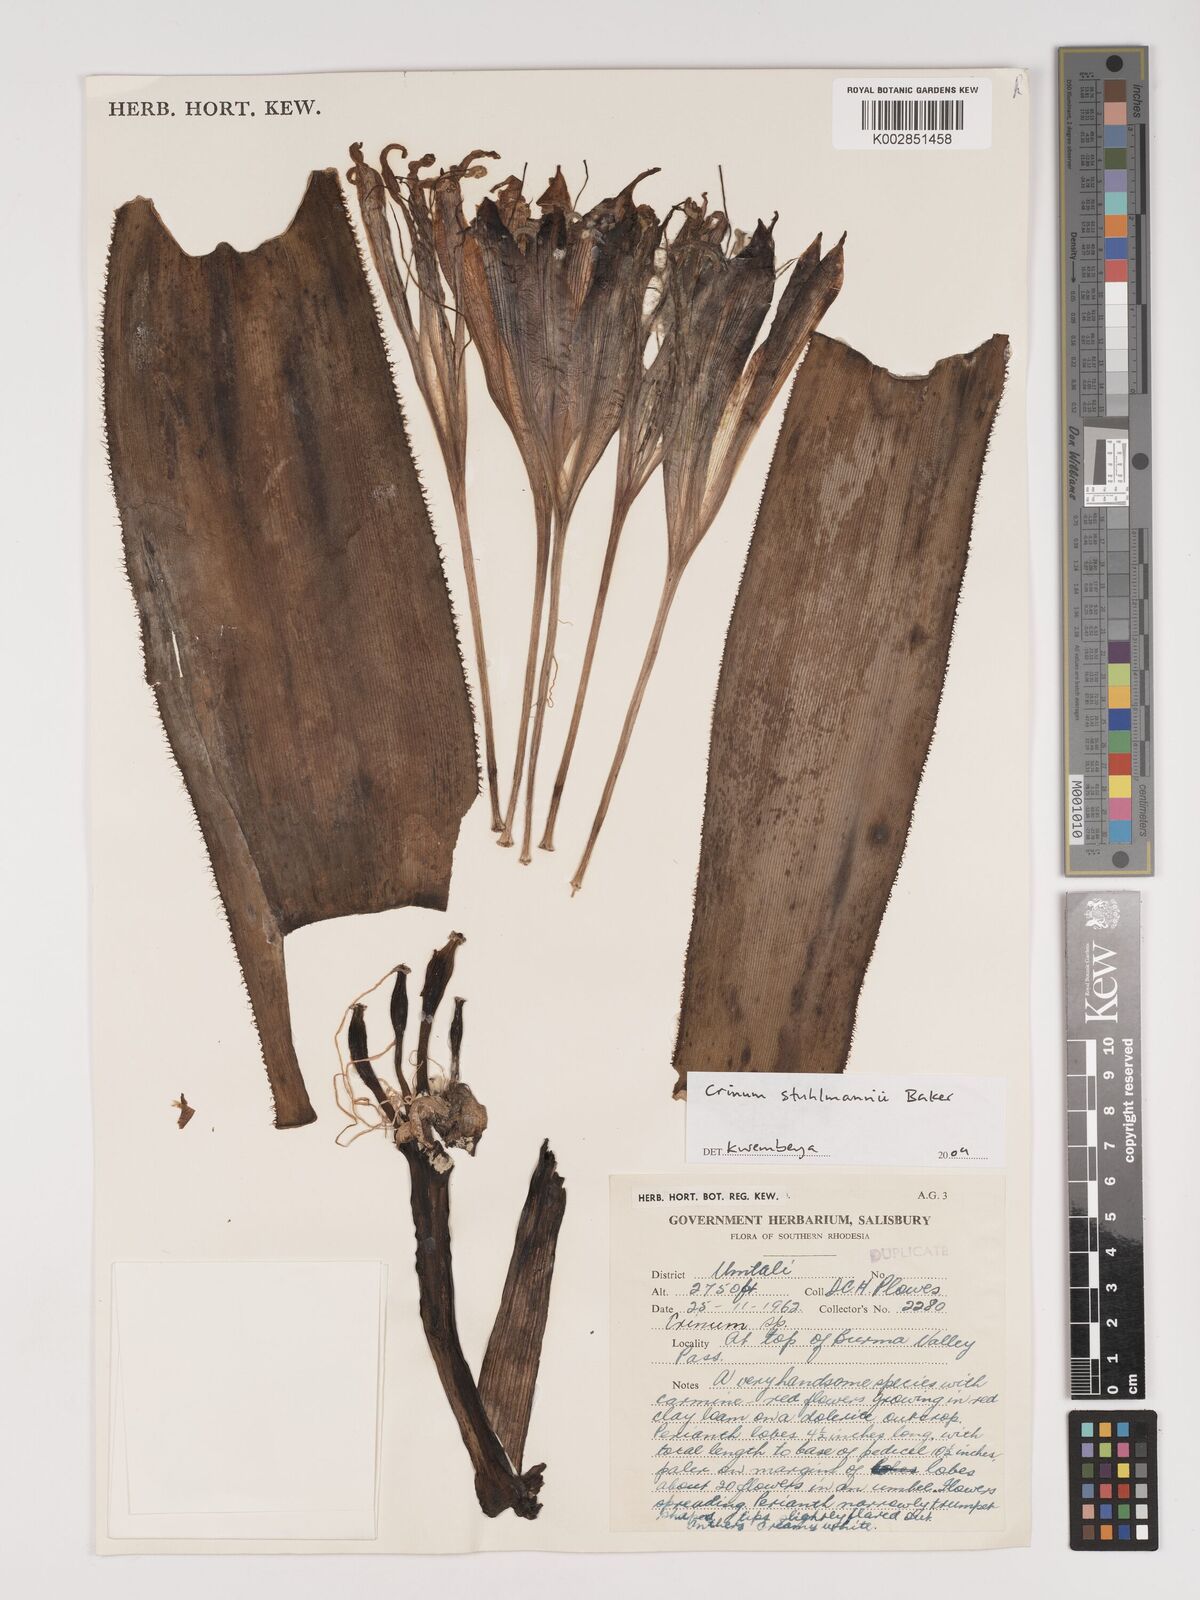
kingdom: Plantae
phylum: Tracheophyta
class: Liliopsida
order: Asparagales
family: Amaryllidaceae
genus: Crinum
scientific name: Crinum stuhlmannii
